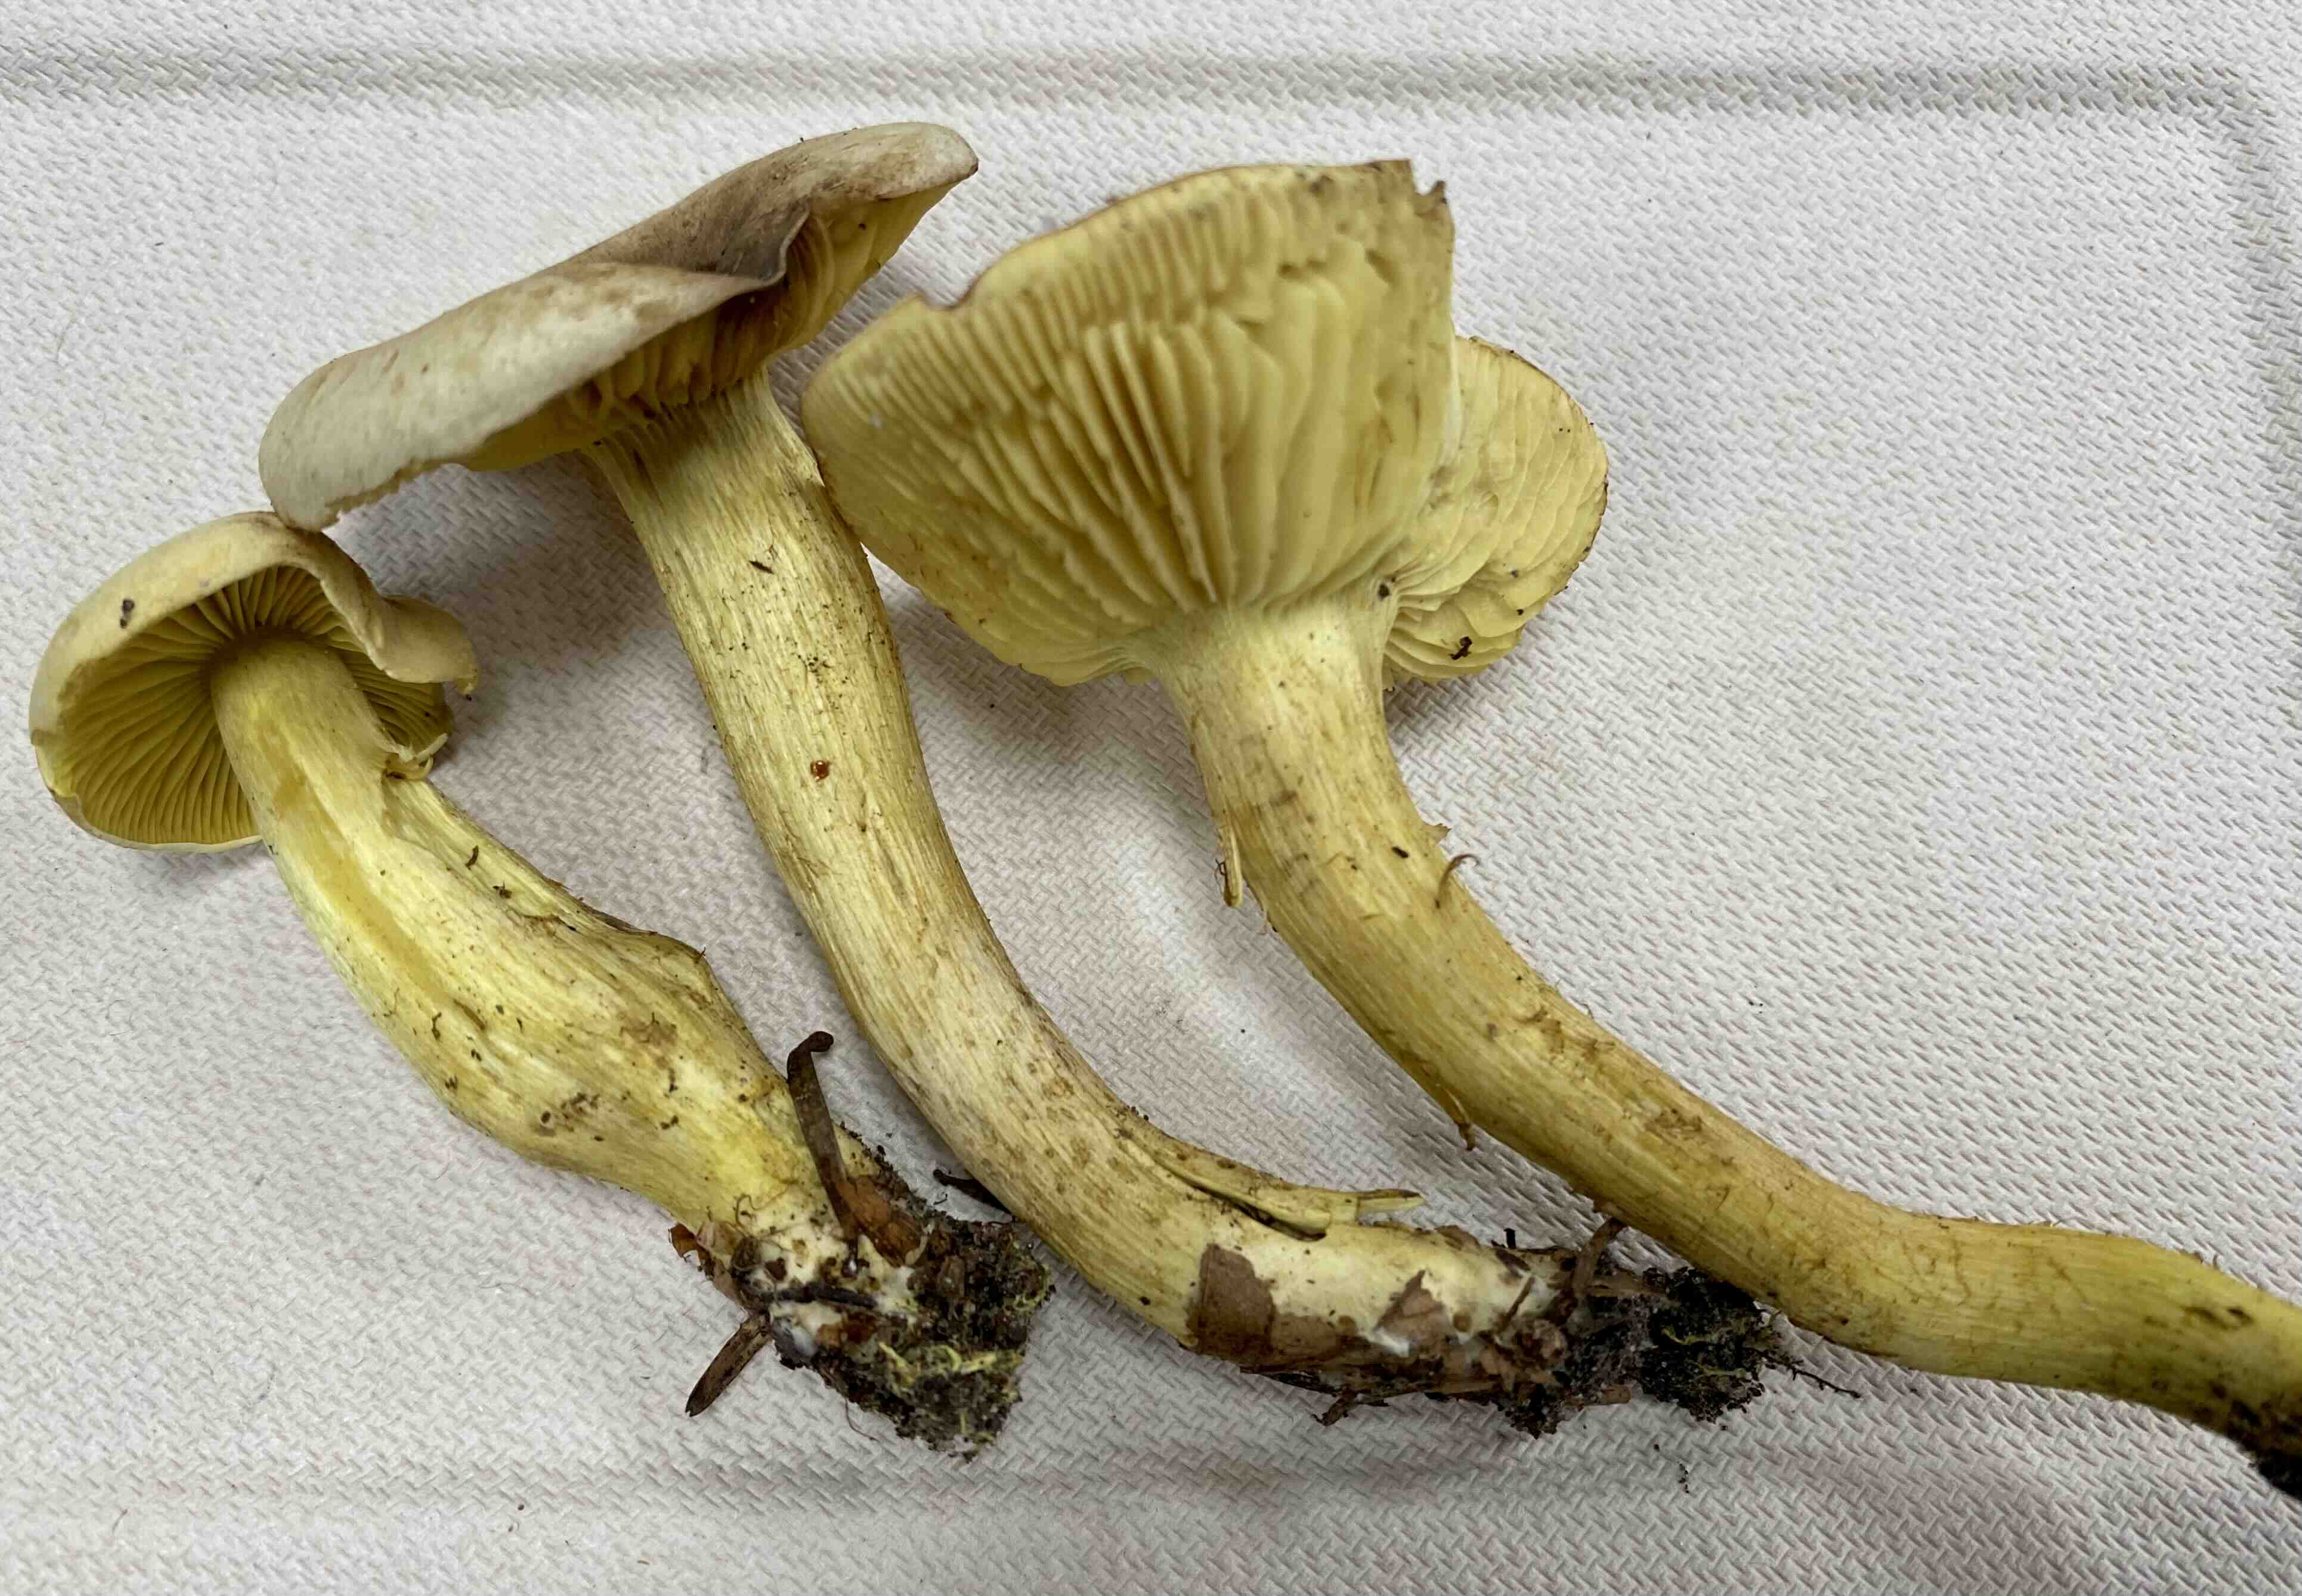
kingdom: Fungi
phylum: Basidiomycota
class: Agaricomycetes
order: Agaricales
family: Tricholomataceae
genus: Tricholoma
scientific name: Tricholoma sulphureum
